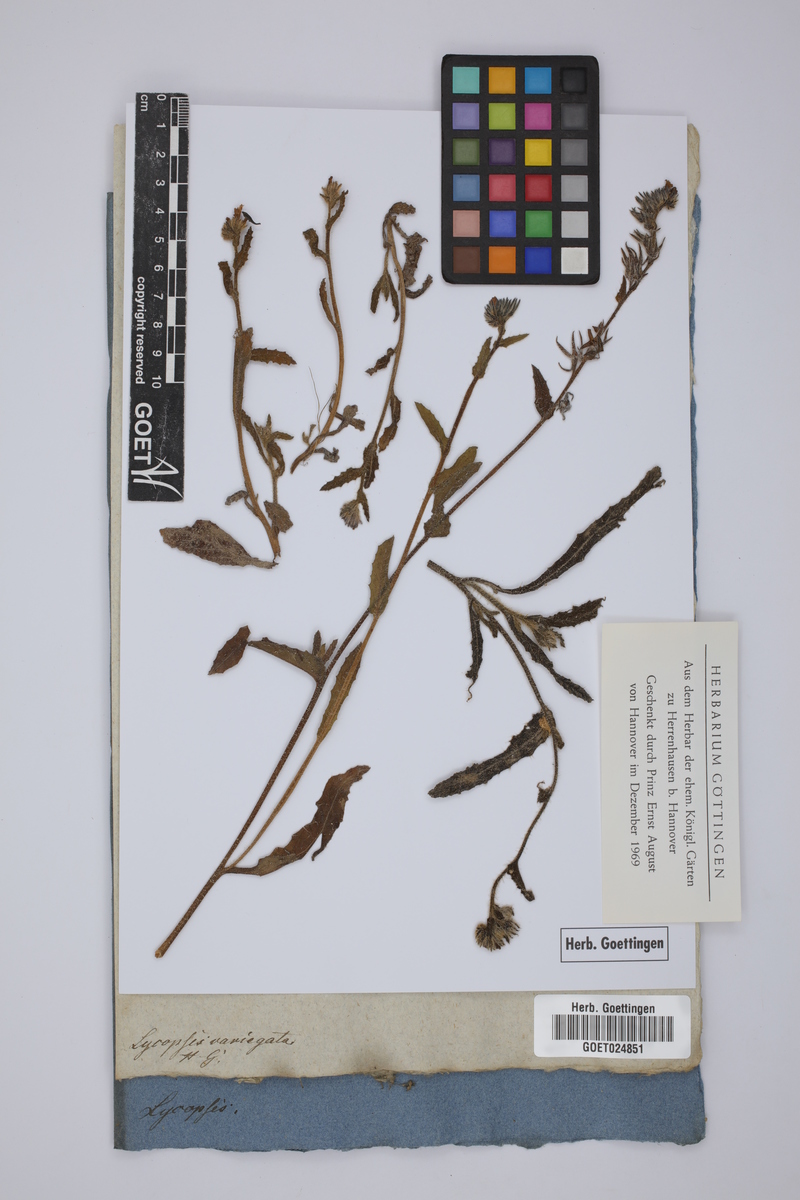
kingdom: Plantae
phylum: Tracheophyta
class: Magnoliopsida
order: Boraginales
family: Boraginaceae
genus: Anchusella
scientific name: Anchusella variegata
